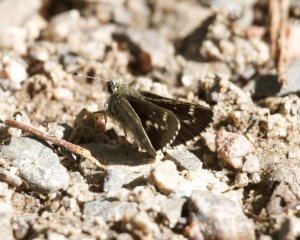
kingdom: Animalia
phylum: Arthropoda
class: Insecta
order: Lepidoptera
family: Hesperiidae
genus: Mastor
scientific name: Mastor hegon
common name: Pepper and Salt Skipper
